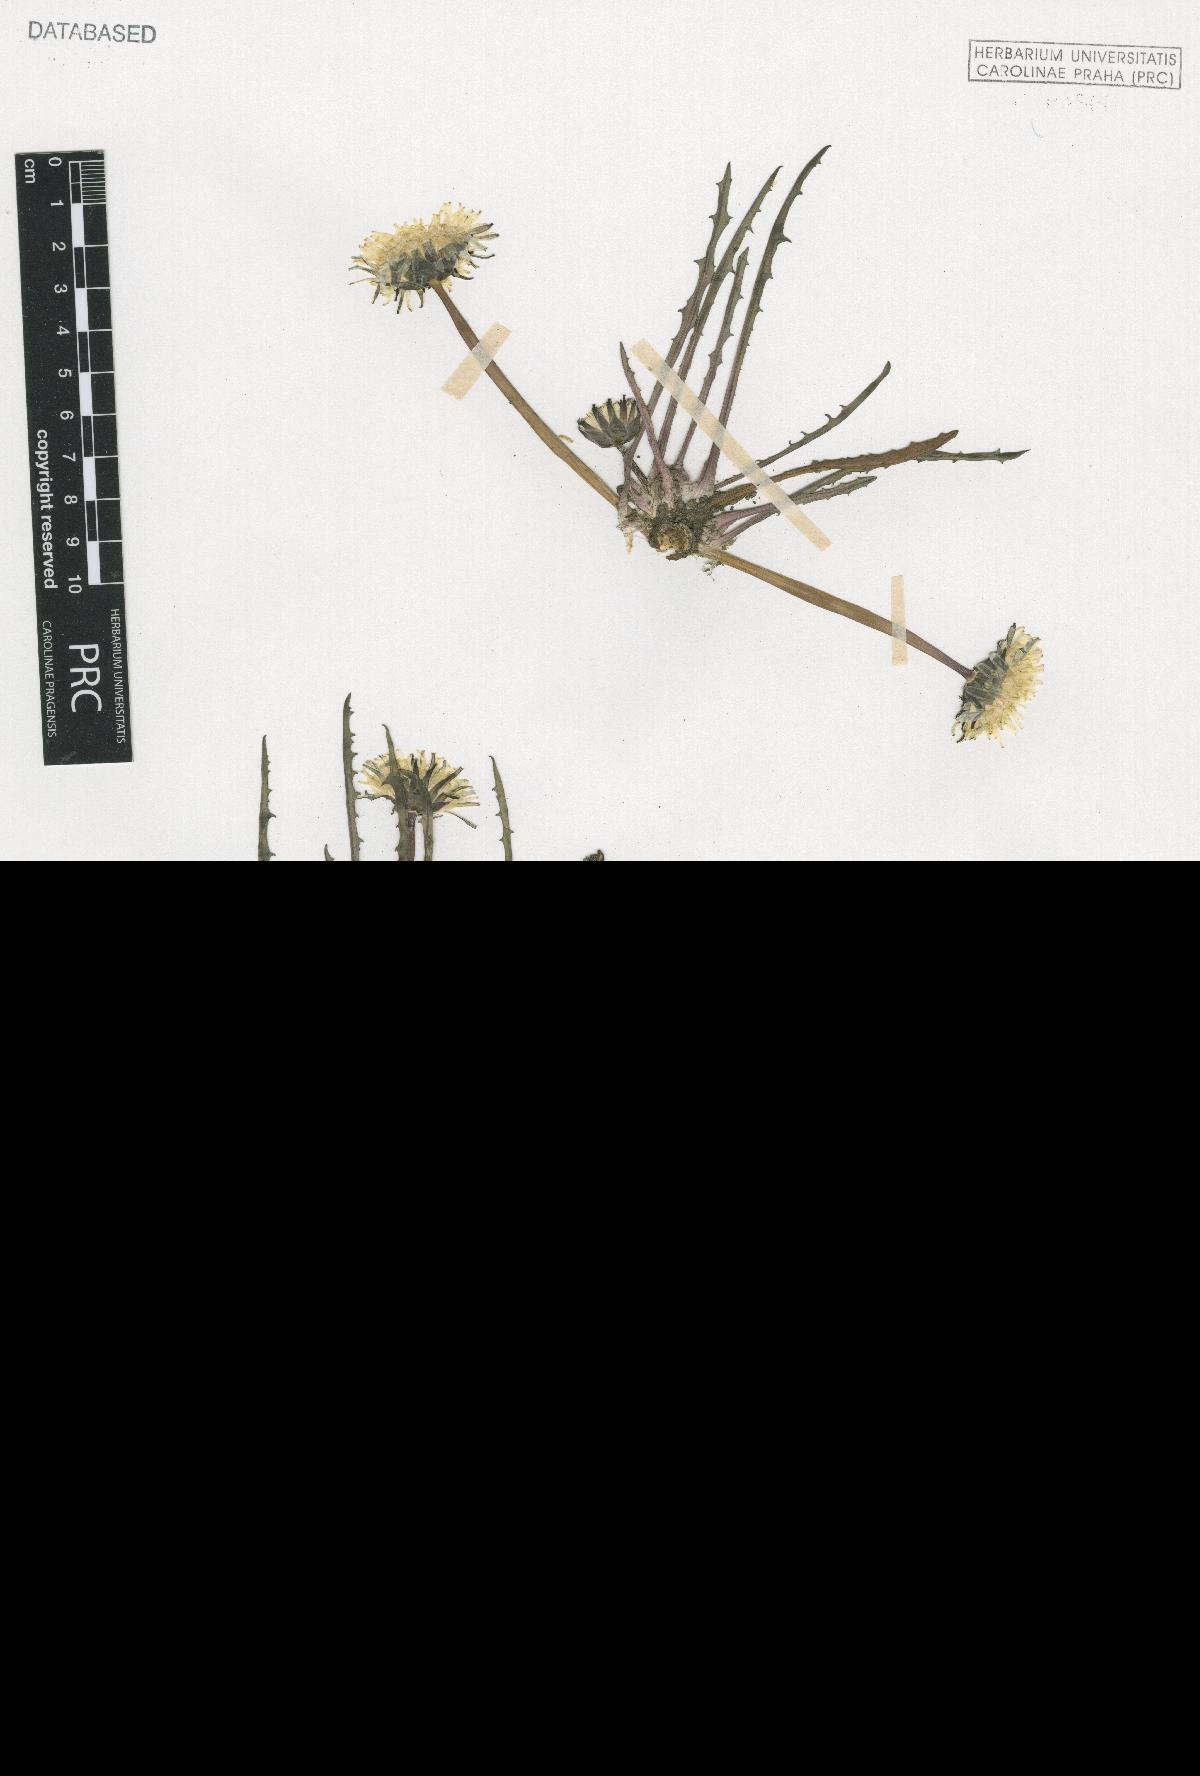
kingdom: Plantae
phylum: Tracheophyta
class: Magnoliopsida
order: Asterales
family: Asteraceae
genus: Taraxacum
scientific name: Taraxacum flos-lacus
